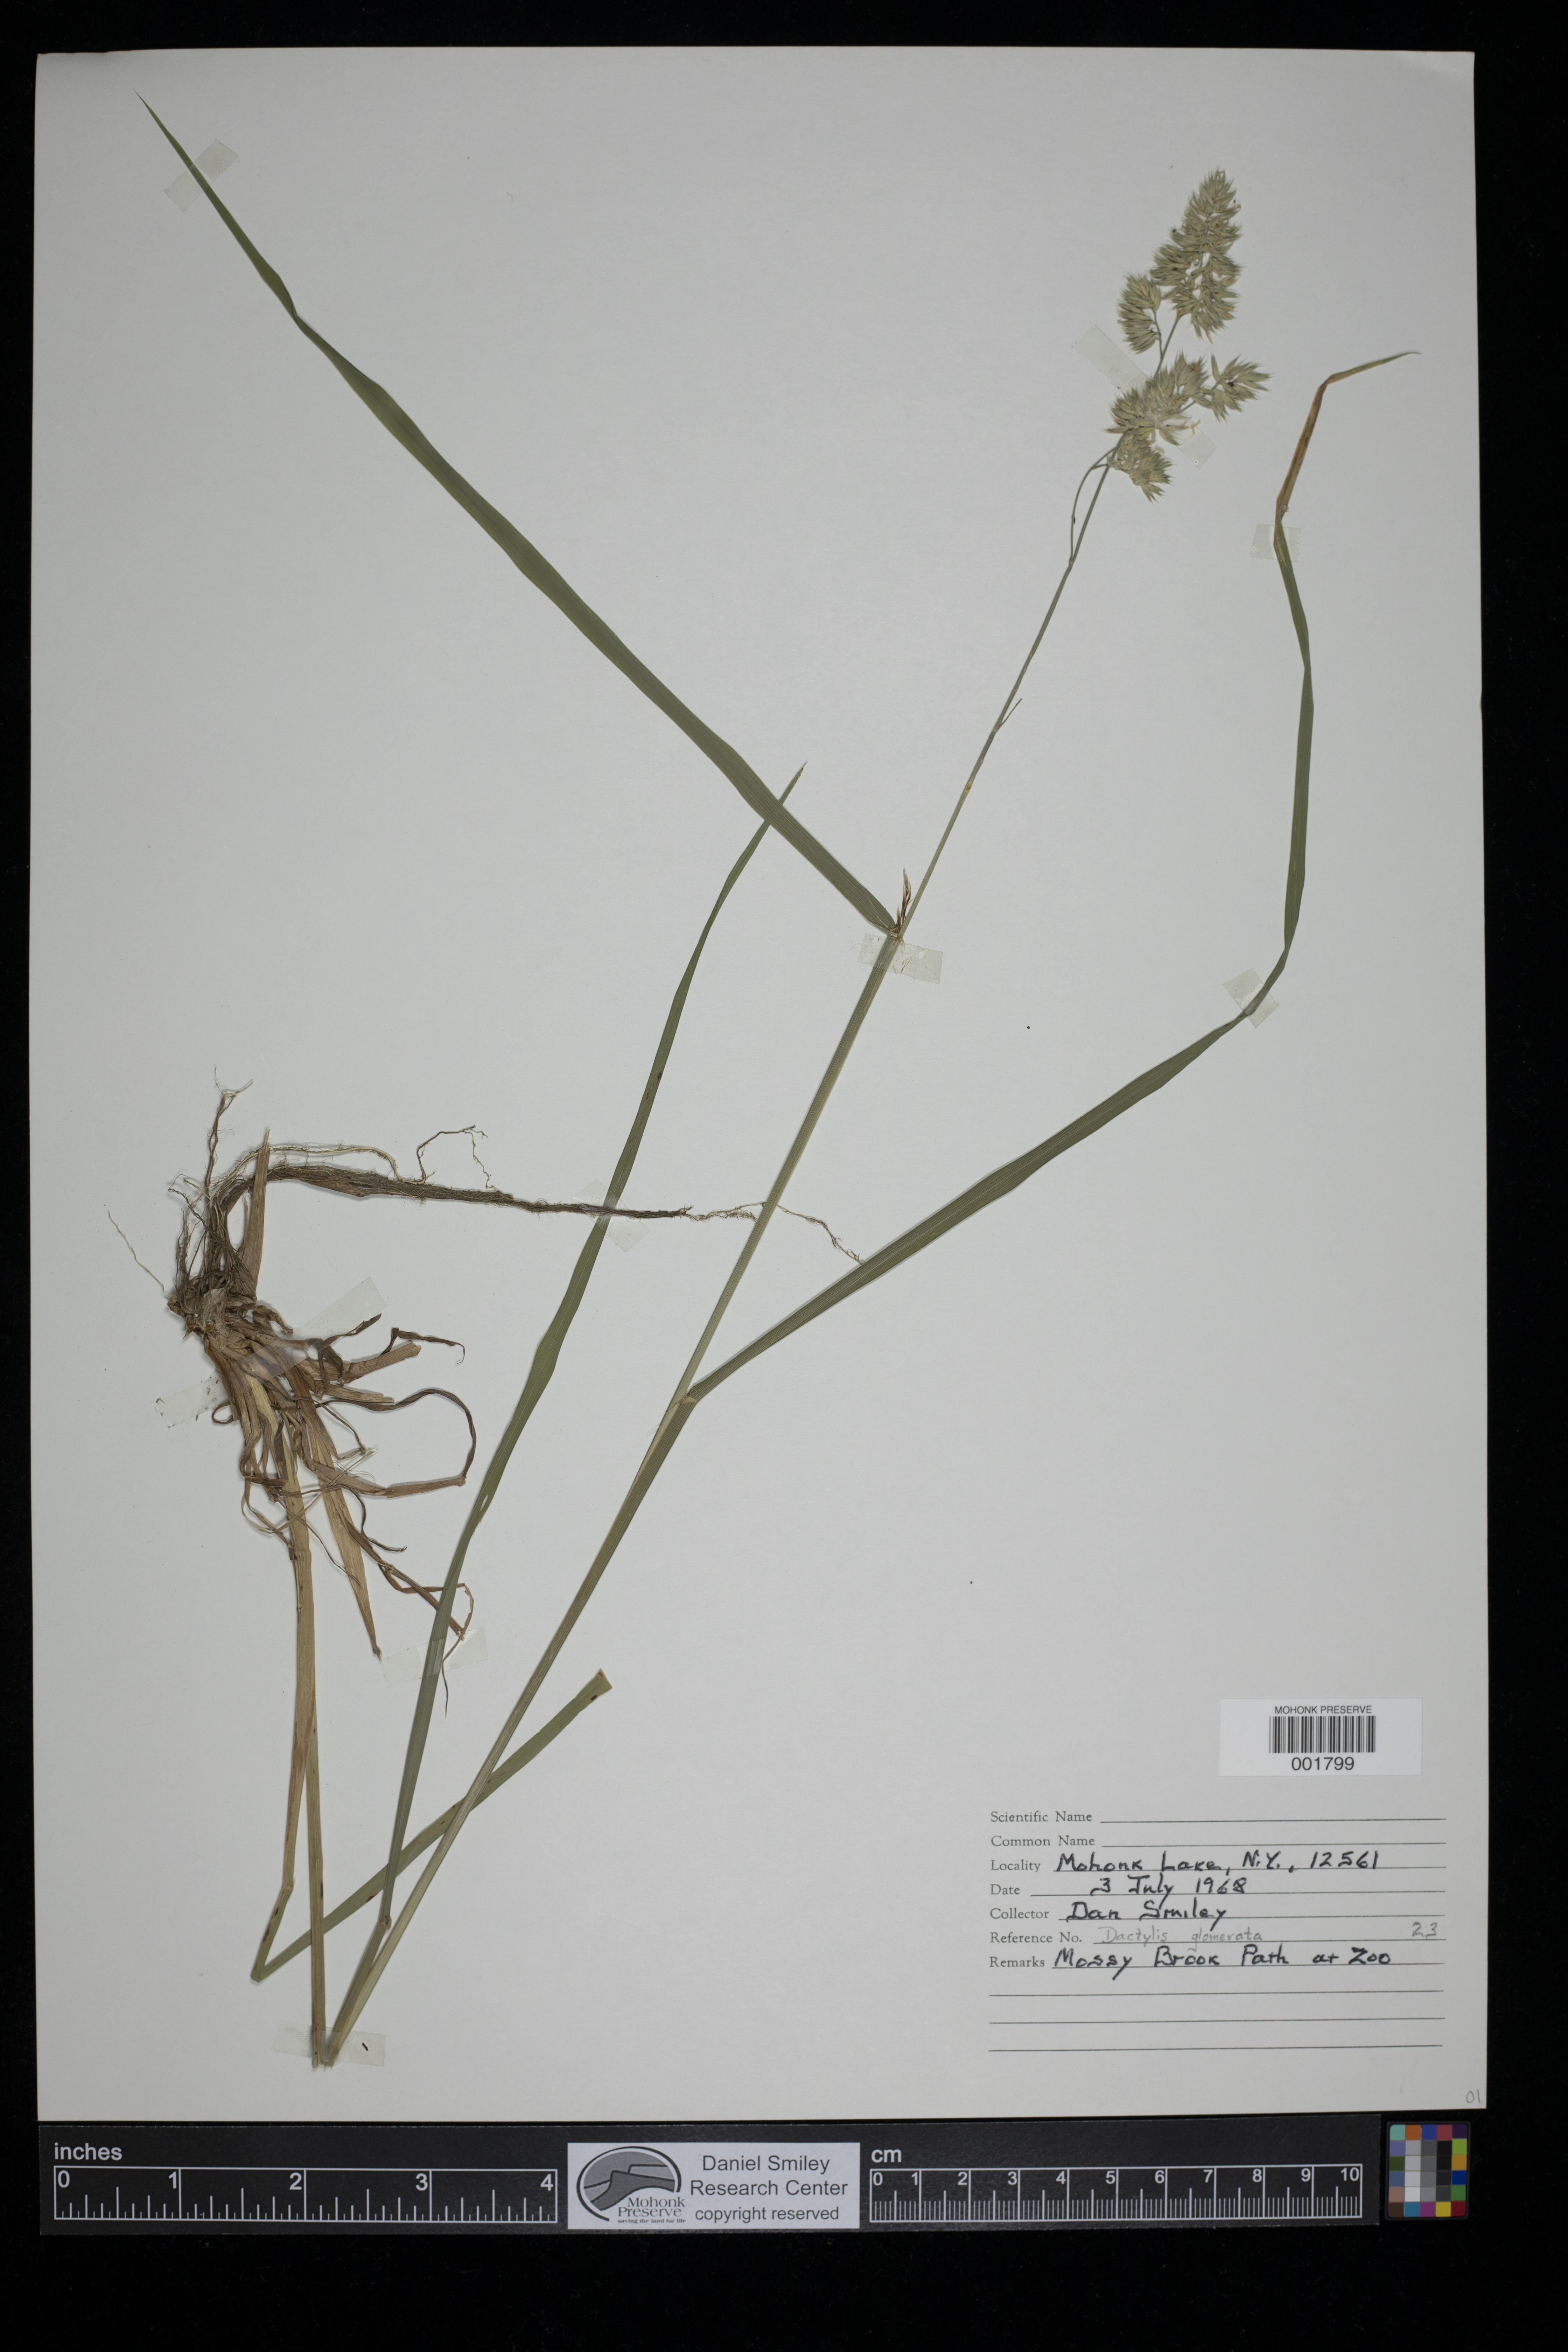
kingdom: Plantae
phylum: Tracheophyta
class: Liliopsida
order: Poales
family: Poaceae
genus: Dactylis
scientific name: Dactylis glomerata
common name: Orchardgrass
